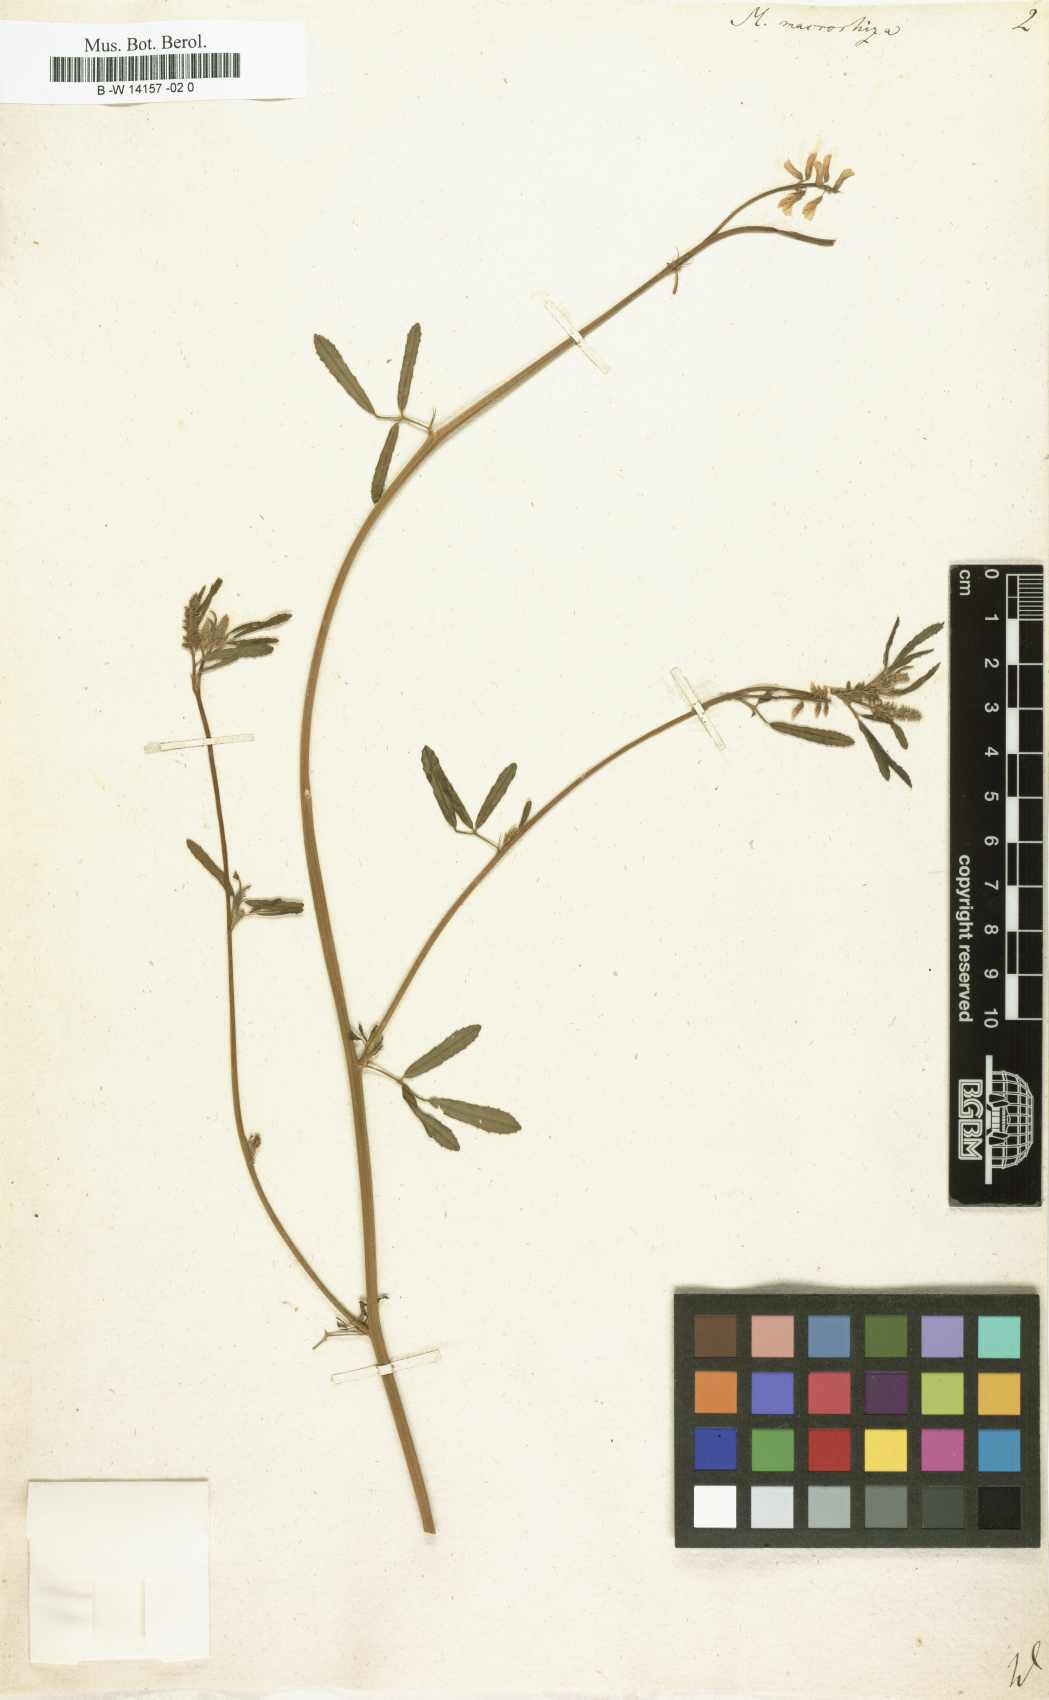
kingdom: Plantae
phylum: Tracheophyta
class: Magnoliopsida
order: Fabales
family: Fabaceae
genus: Melilotus
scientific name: Melilotus
